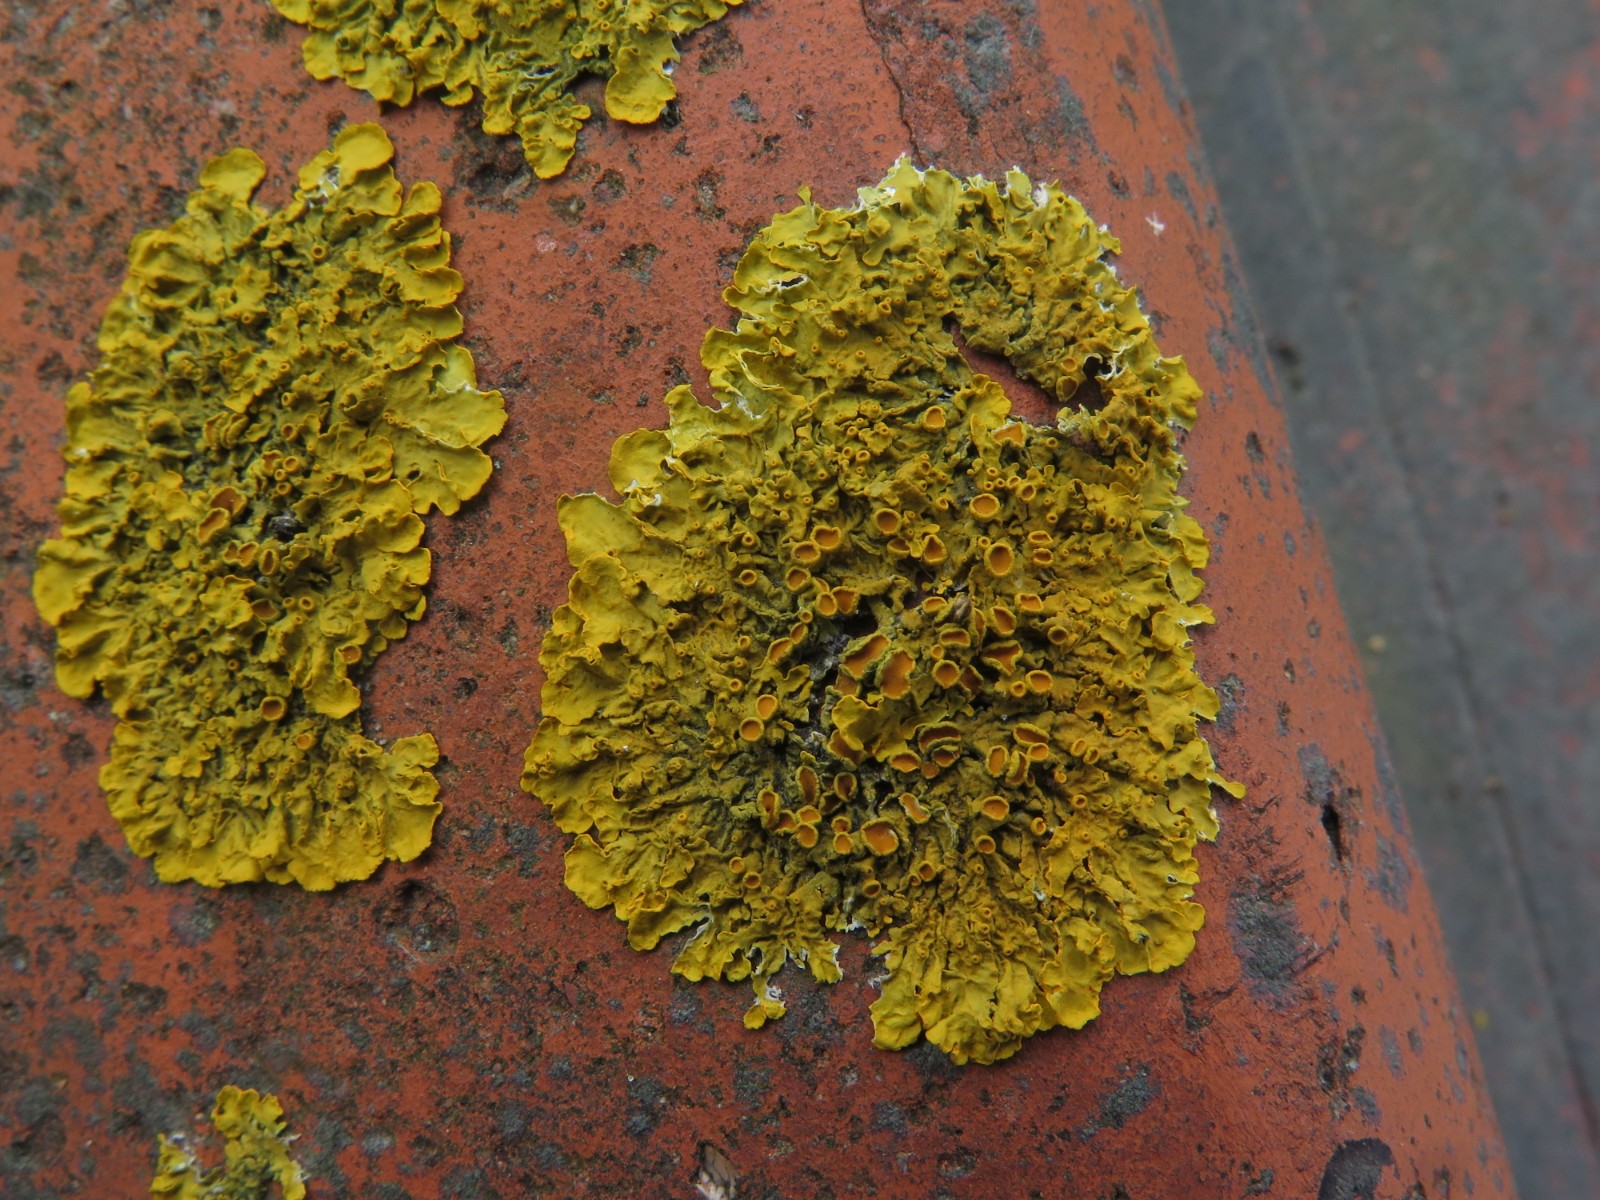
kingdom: Fungi
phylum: Ascomycota
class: Lecanoromycetes
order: Teloschistales
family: Teloschistaceae
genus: Xanthoria
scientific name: Xanthoria parietina
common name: almindelig væggelav
